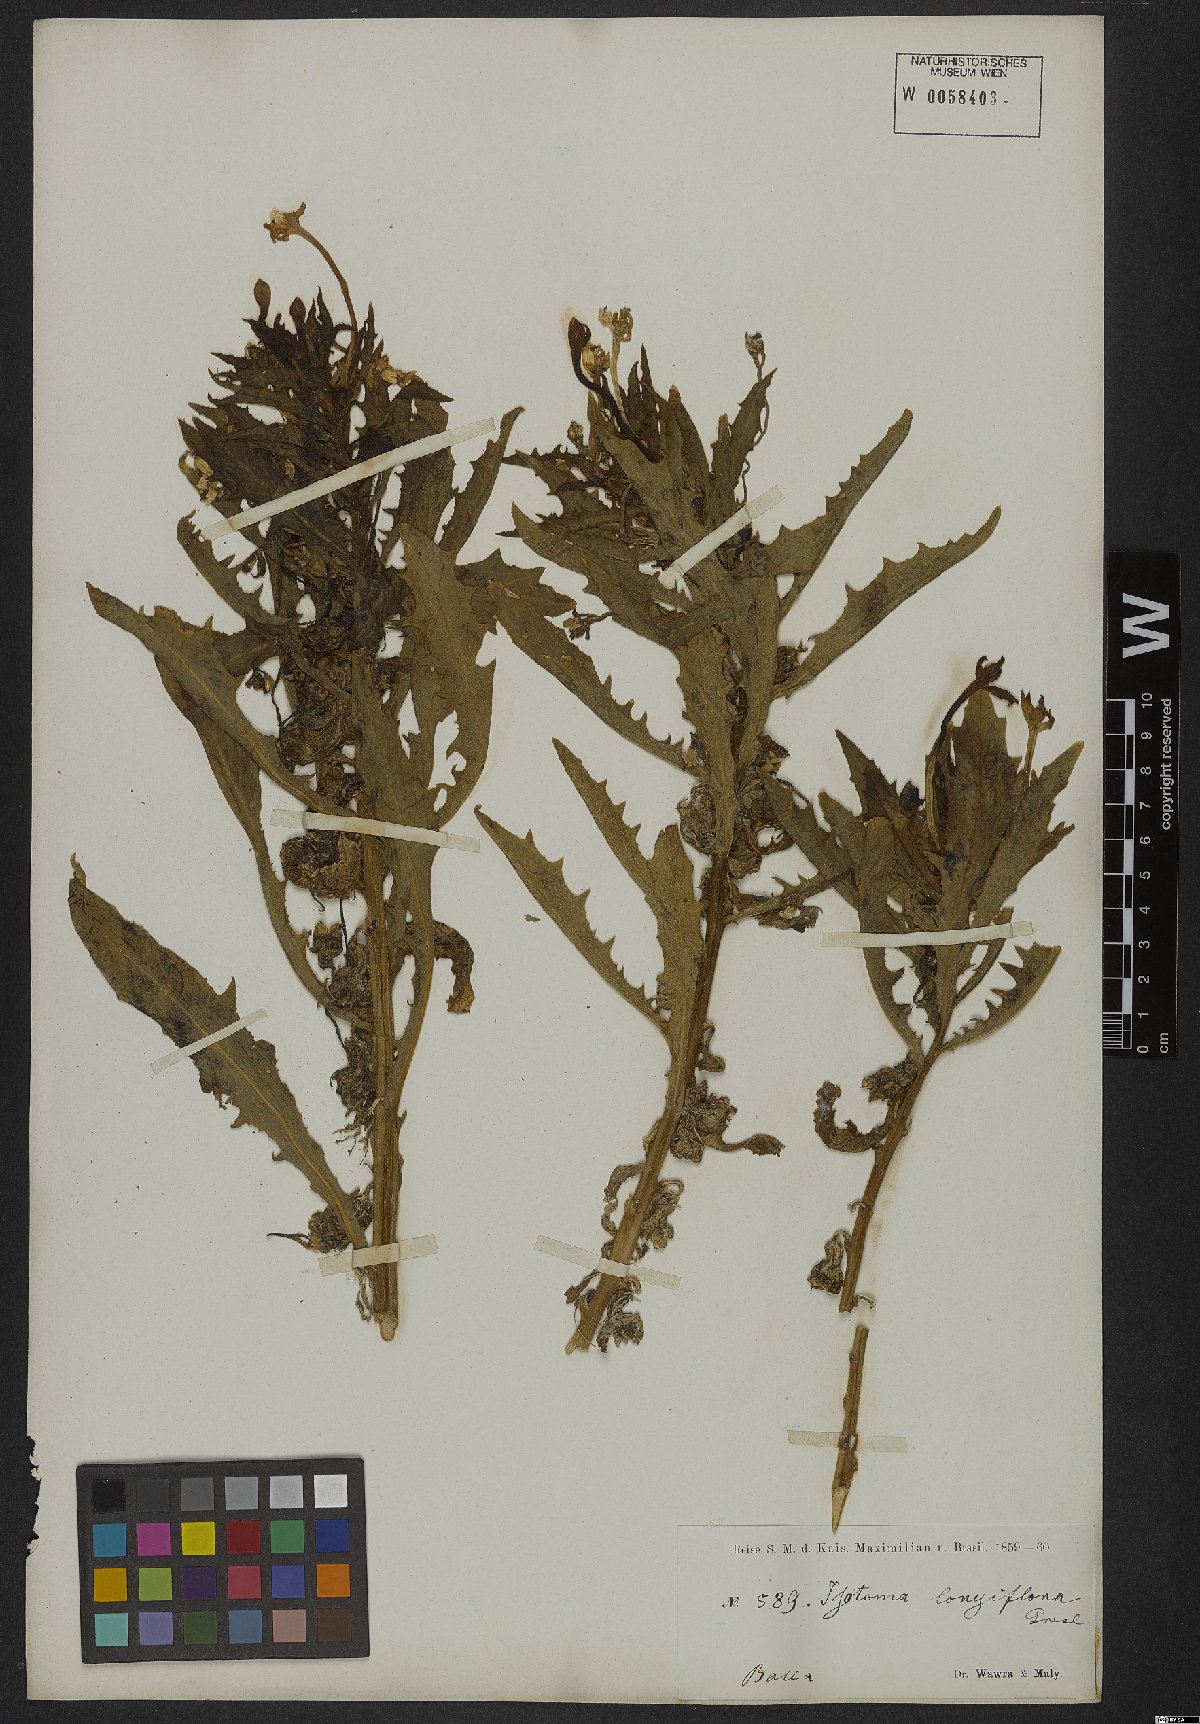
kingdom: Plantae
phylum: Tracheophyta
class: Magnoliopsida
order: Asterales
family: Campanulaceae
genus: Hippobroma
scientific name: Hippobroma longiflora
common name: Madamfate
